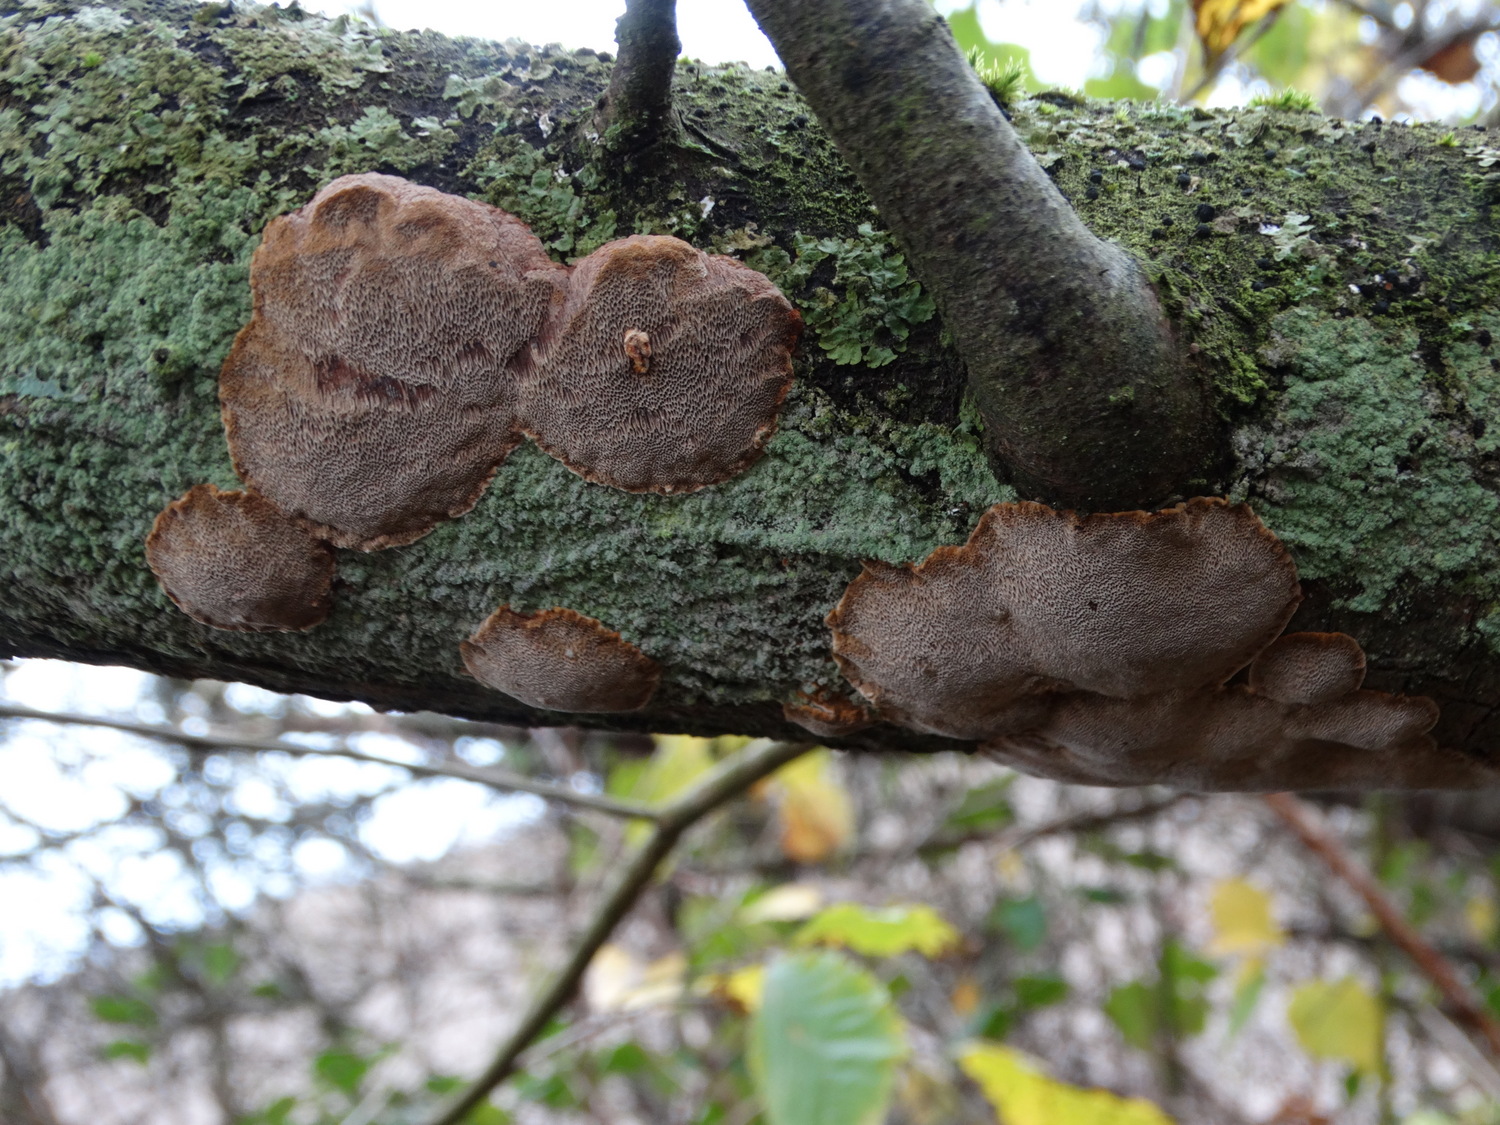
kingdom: Fungi
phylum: Basidiomycota
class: Agaricomycetes
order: Hymenochaetales
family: Hymenochaetaceae
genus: Phellinus
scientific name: Phellinus pomaceus
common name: blomme-ildporesvamp
